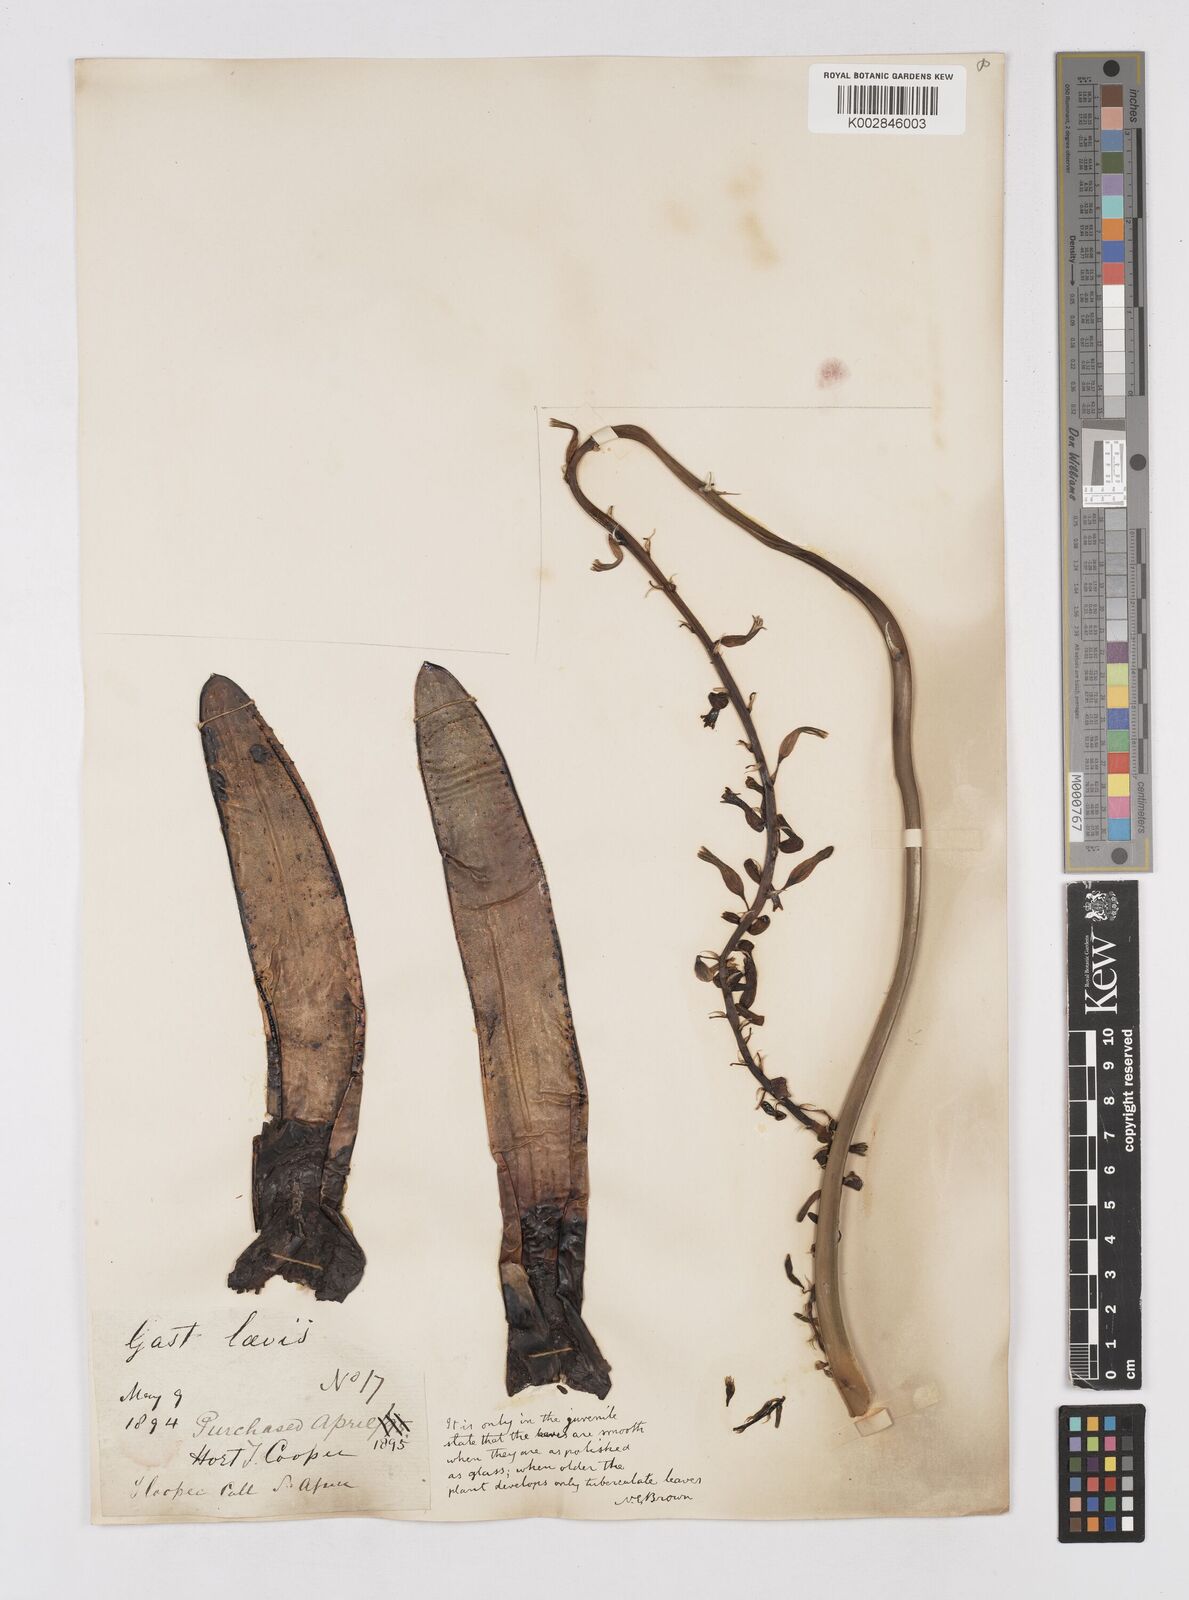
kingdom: Plantae
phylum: Tracheophyta
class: Liliopsida
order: Asparagales
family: Asphodelaceae
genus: Gasteria
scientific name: Gasteria obliqua
